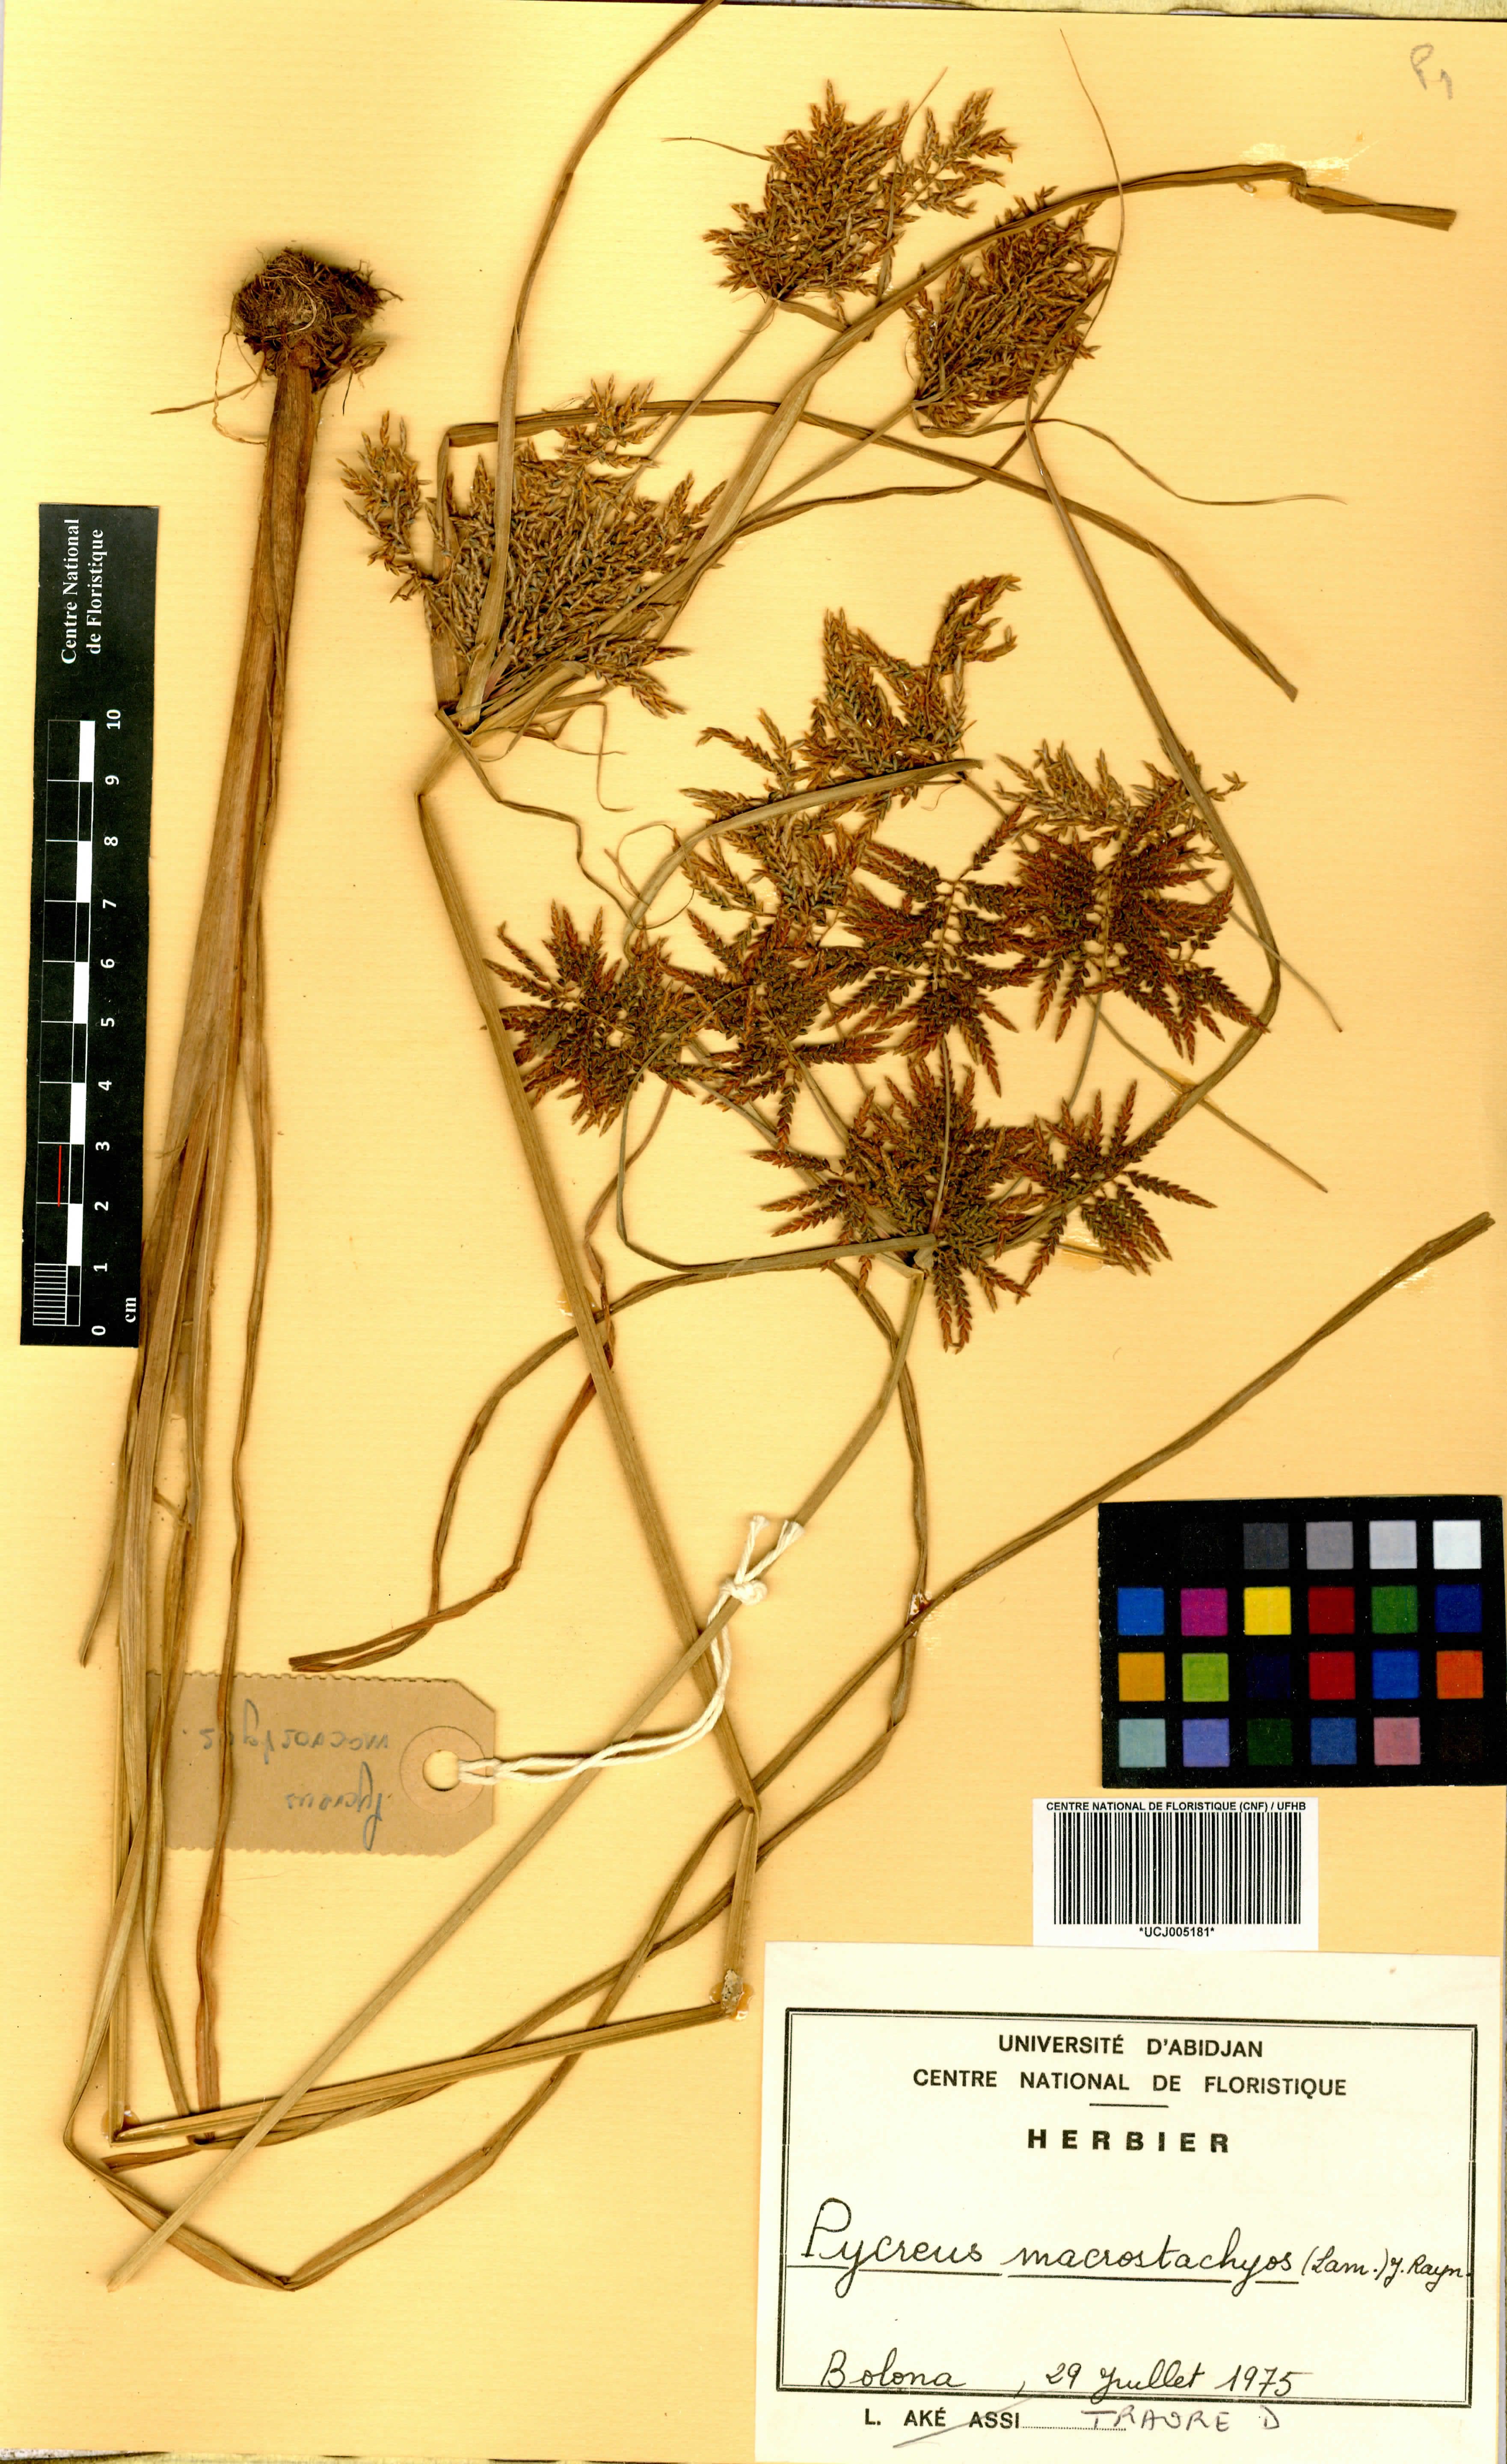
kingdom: Plantae
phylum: Tracheophyta
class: Liliopsida
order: Poales
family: Cyperaceae
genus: Cyperus
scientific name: Cyperus macrostachyos
